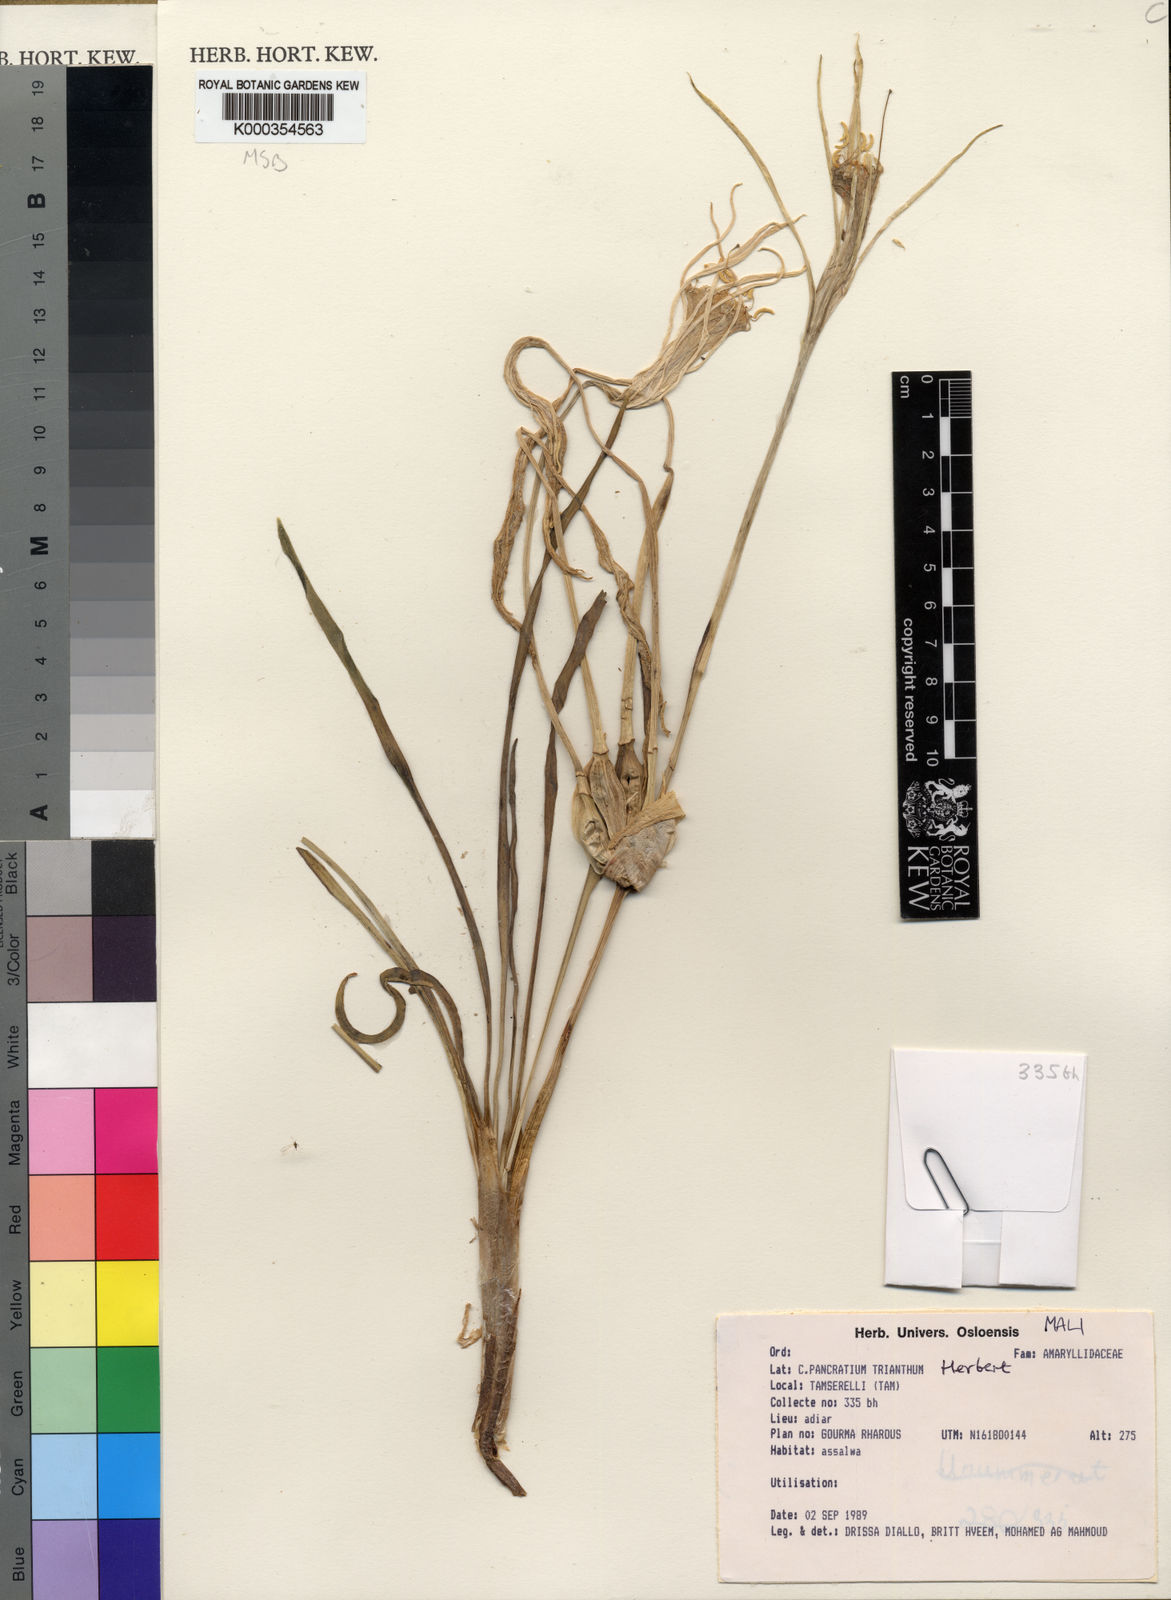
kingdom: Plantae
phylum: Tracheophyta
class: Liliopsida
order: Asparagales
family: Amaryllidaceae
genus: Pancratium
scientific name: Pancratium trianthum
